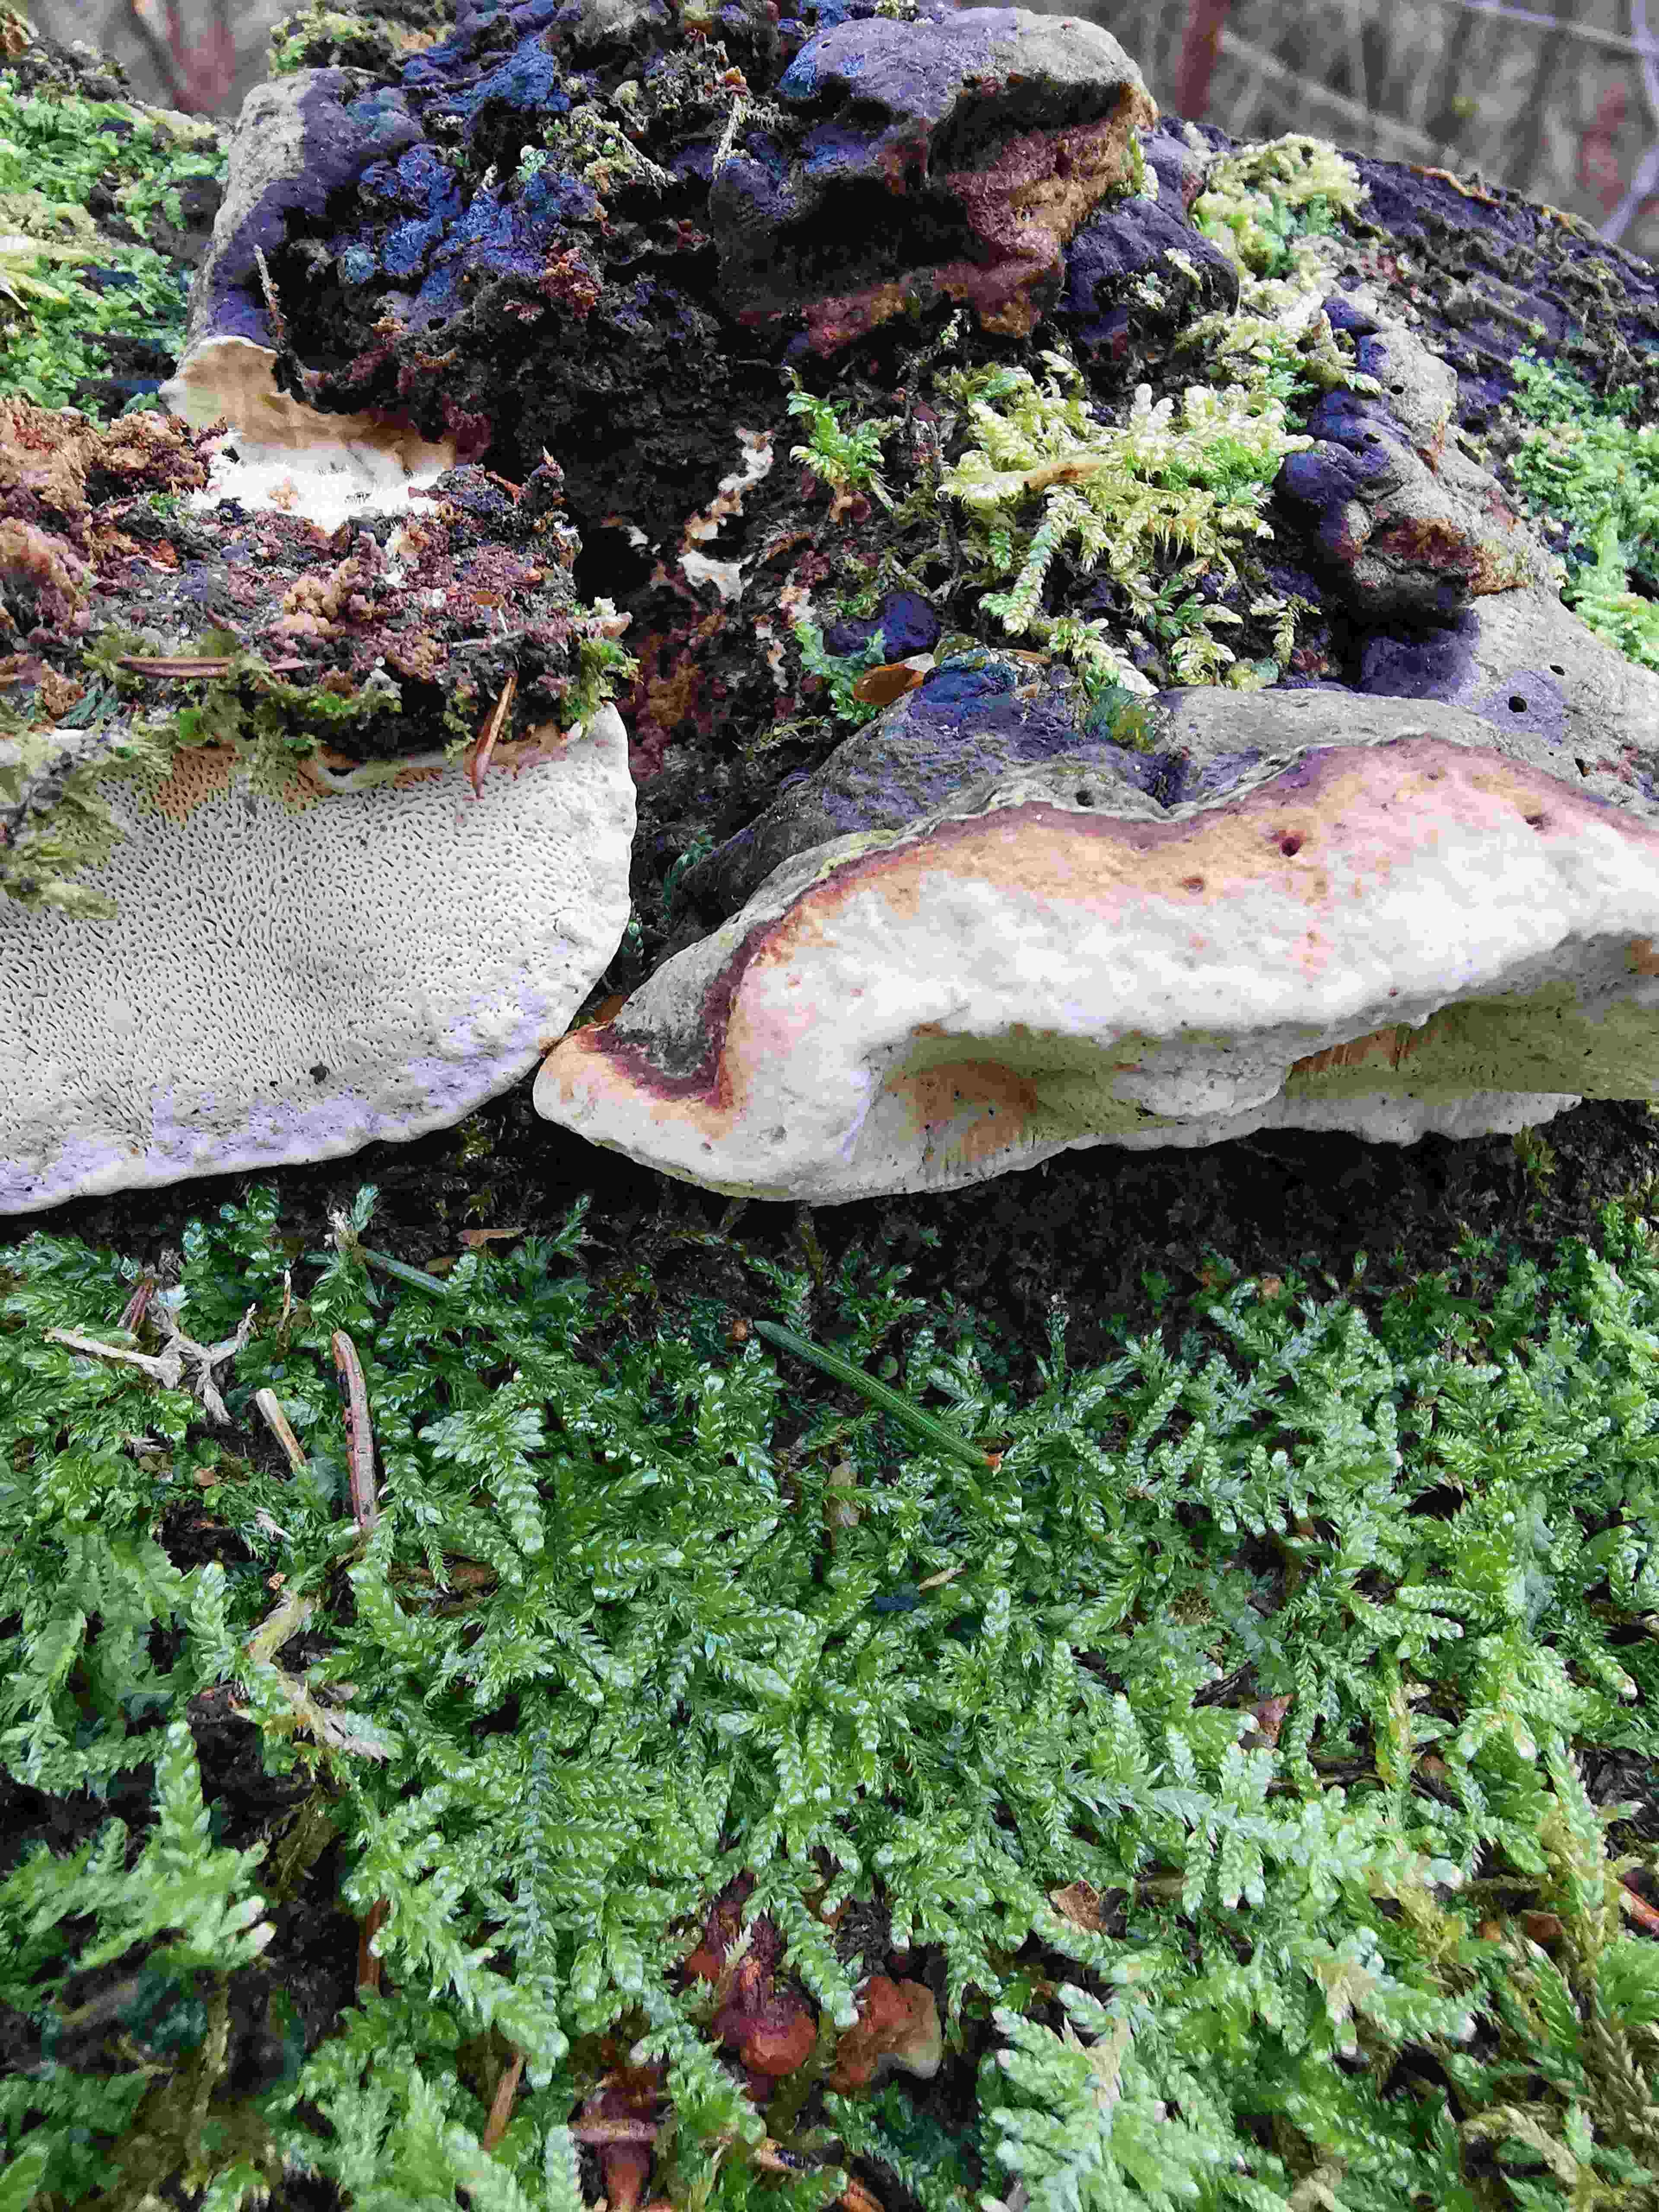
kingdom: Fungi
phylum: Basidiomycota
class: Agaricomycetes
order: Polyporales
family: Fomitopsidaceae
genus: Fomitopsis
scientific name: Fomitopsis pinicola
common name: randbæltet hovporesvamp
